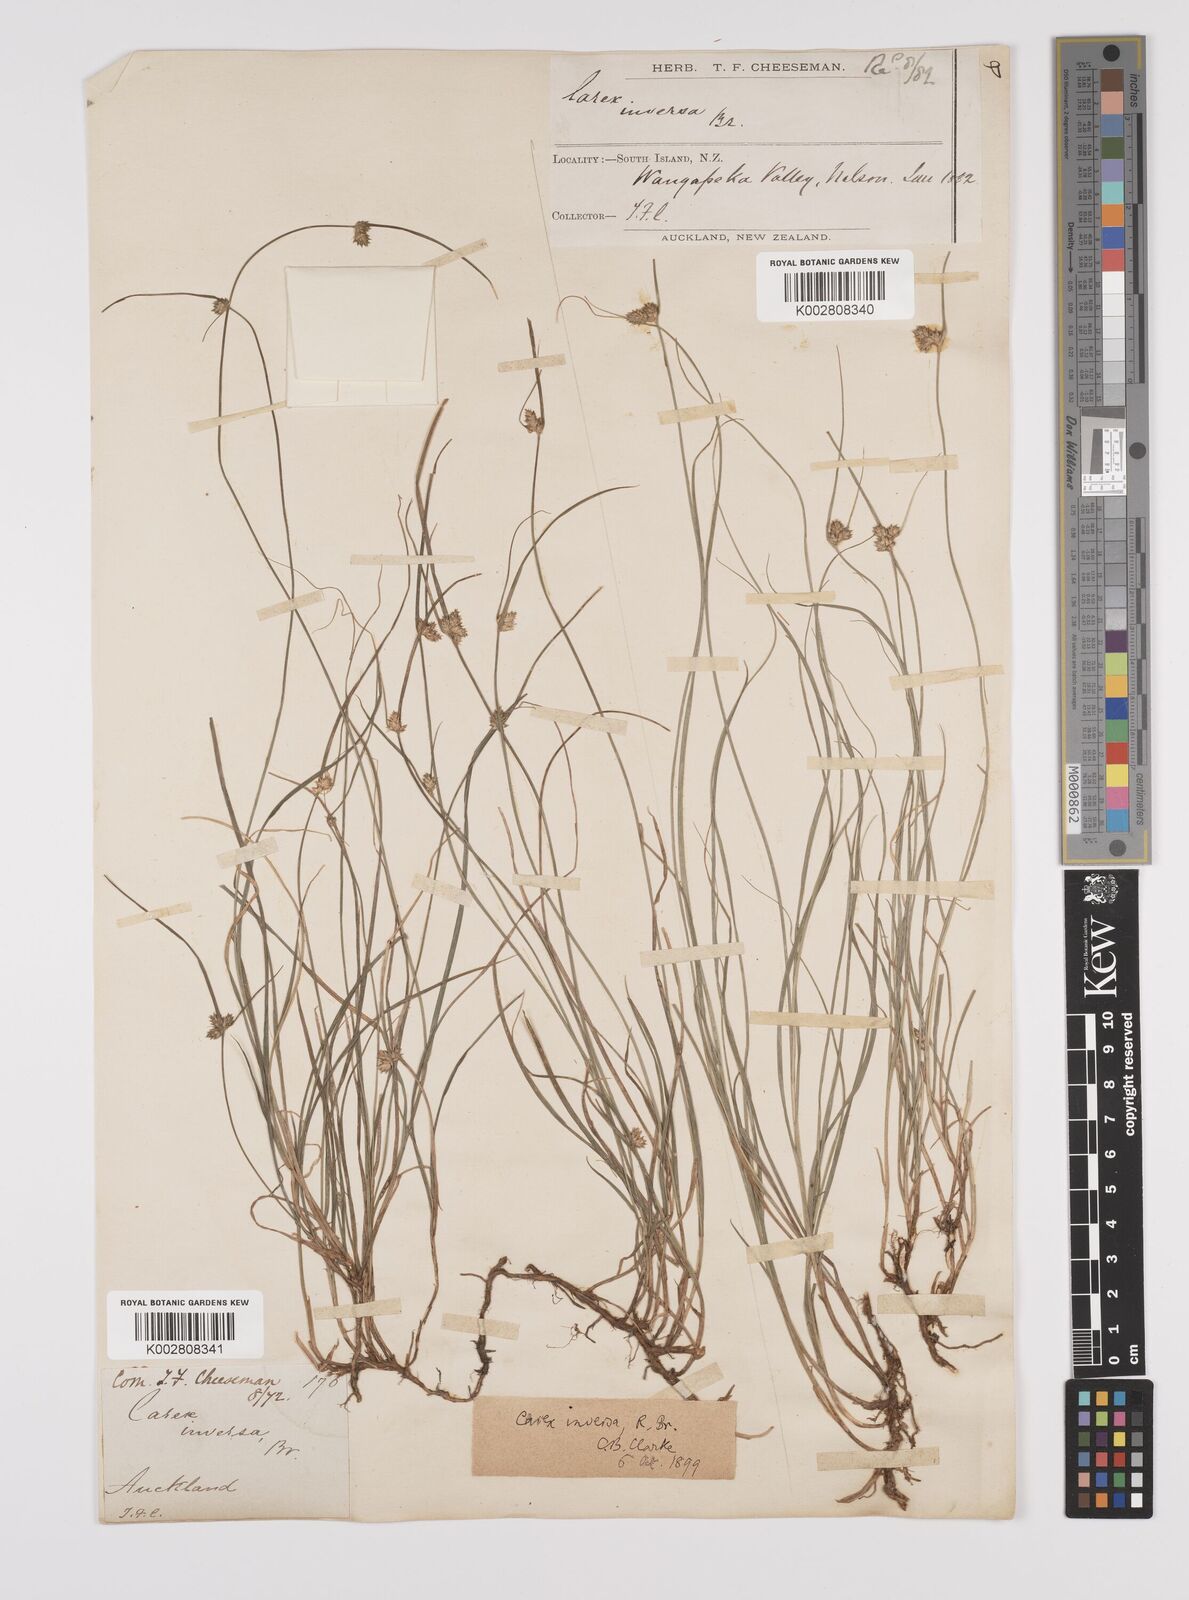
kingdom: Plantae
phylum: Tracheophyta
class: Liliopsida
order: Poales
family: Cyperaceae
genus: Carex
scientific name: Carex inversa
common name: Knob sedge
